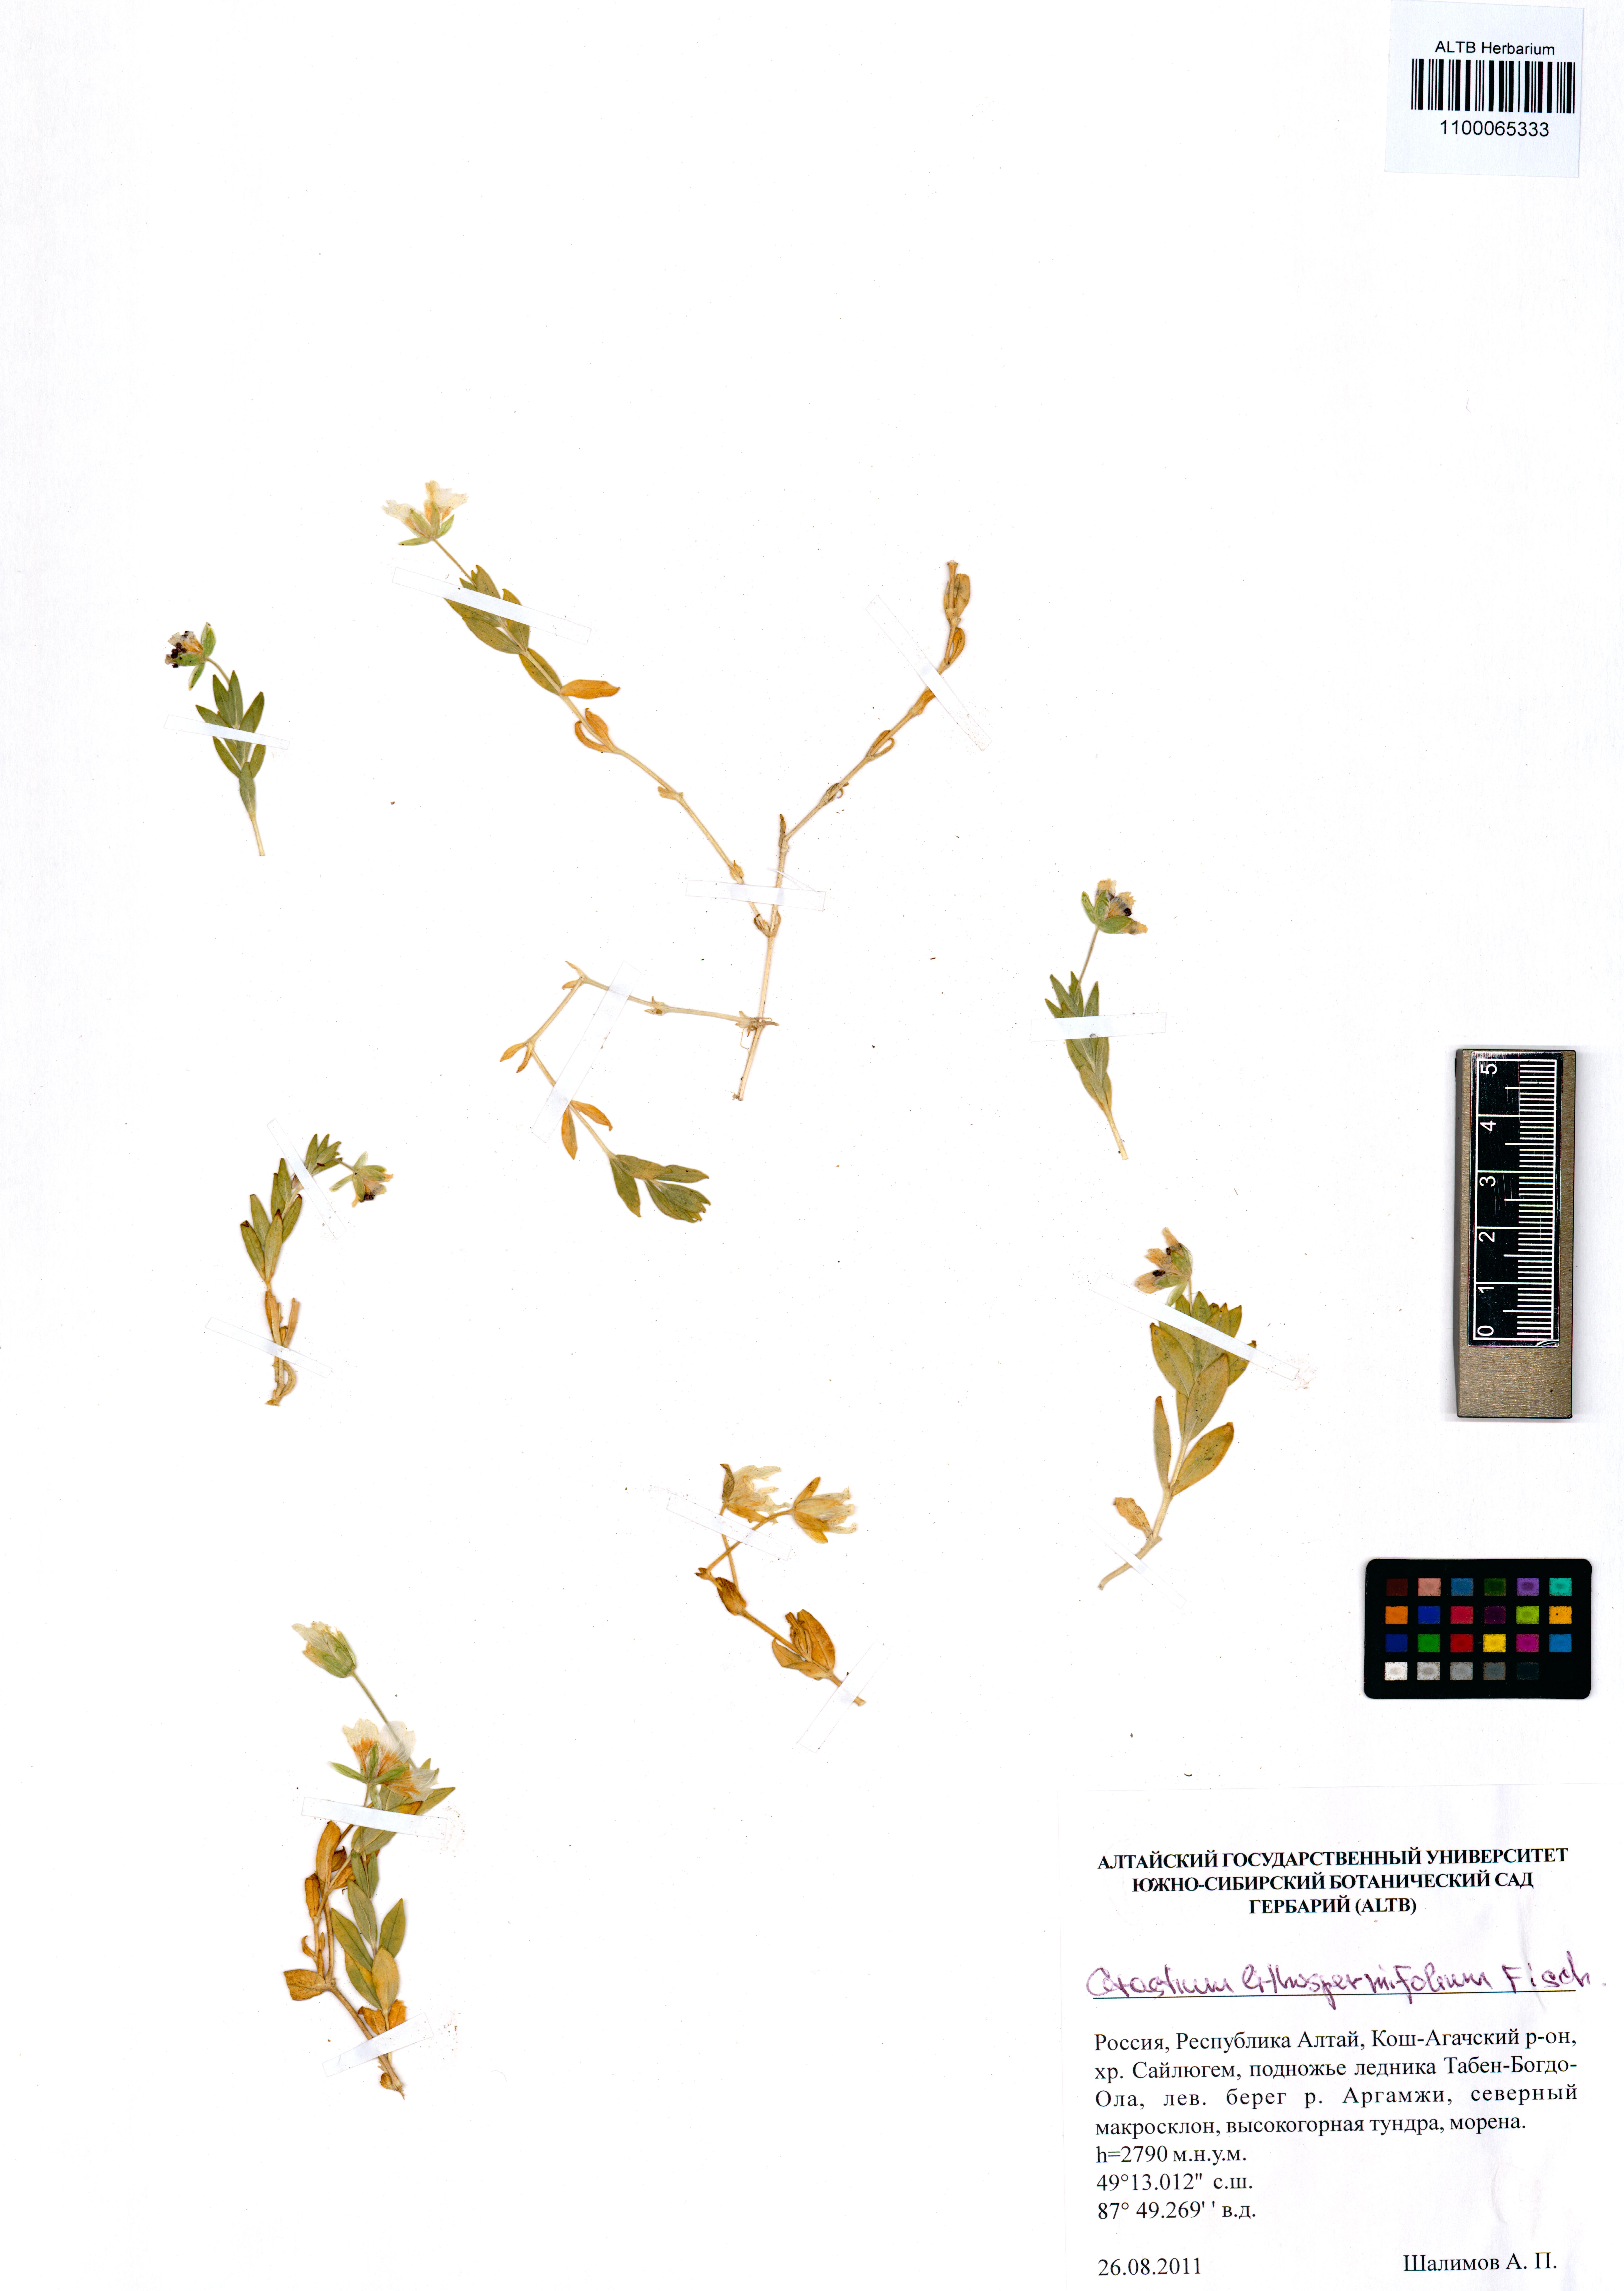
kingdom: Plantae
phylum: Tracheophyta
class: Magnoliopsida
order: Caryophyllales
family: Caryophyllaceae
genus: Cerastium
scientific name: Cerastium lithospermifolium
